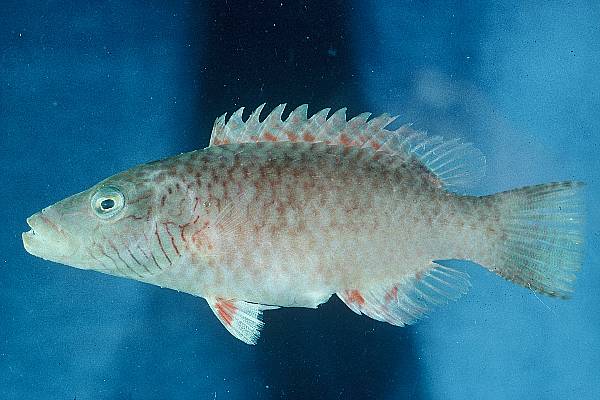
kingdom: Animalia
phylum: Chordata
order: Perciformes
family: Labridae
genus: Oxycheilinus
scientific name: Oxycheilinus digramma
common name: Bandcheek wrasse
